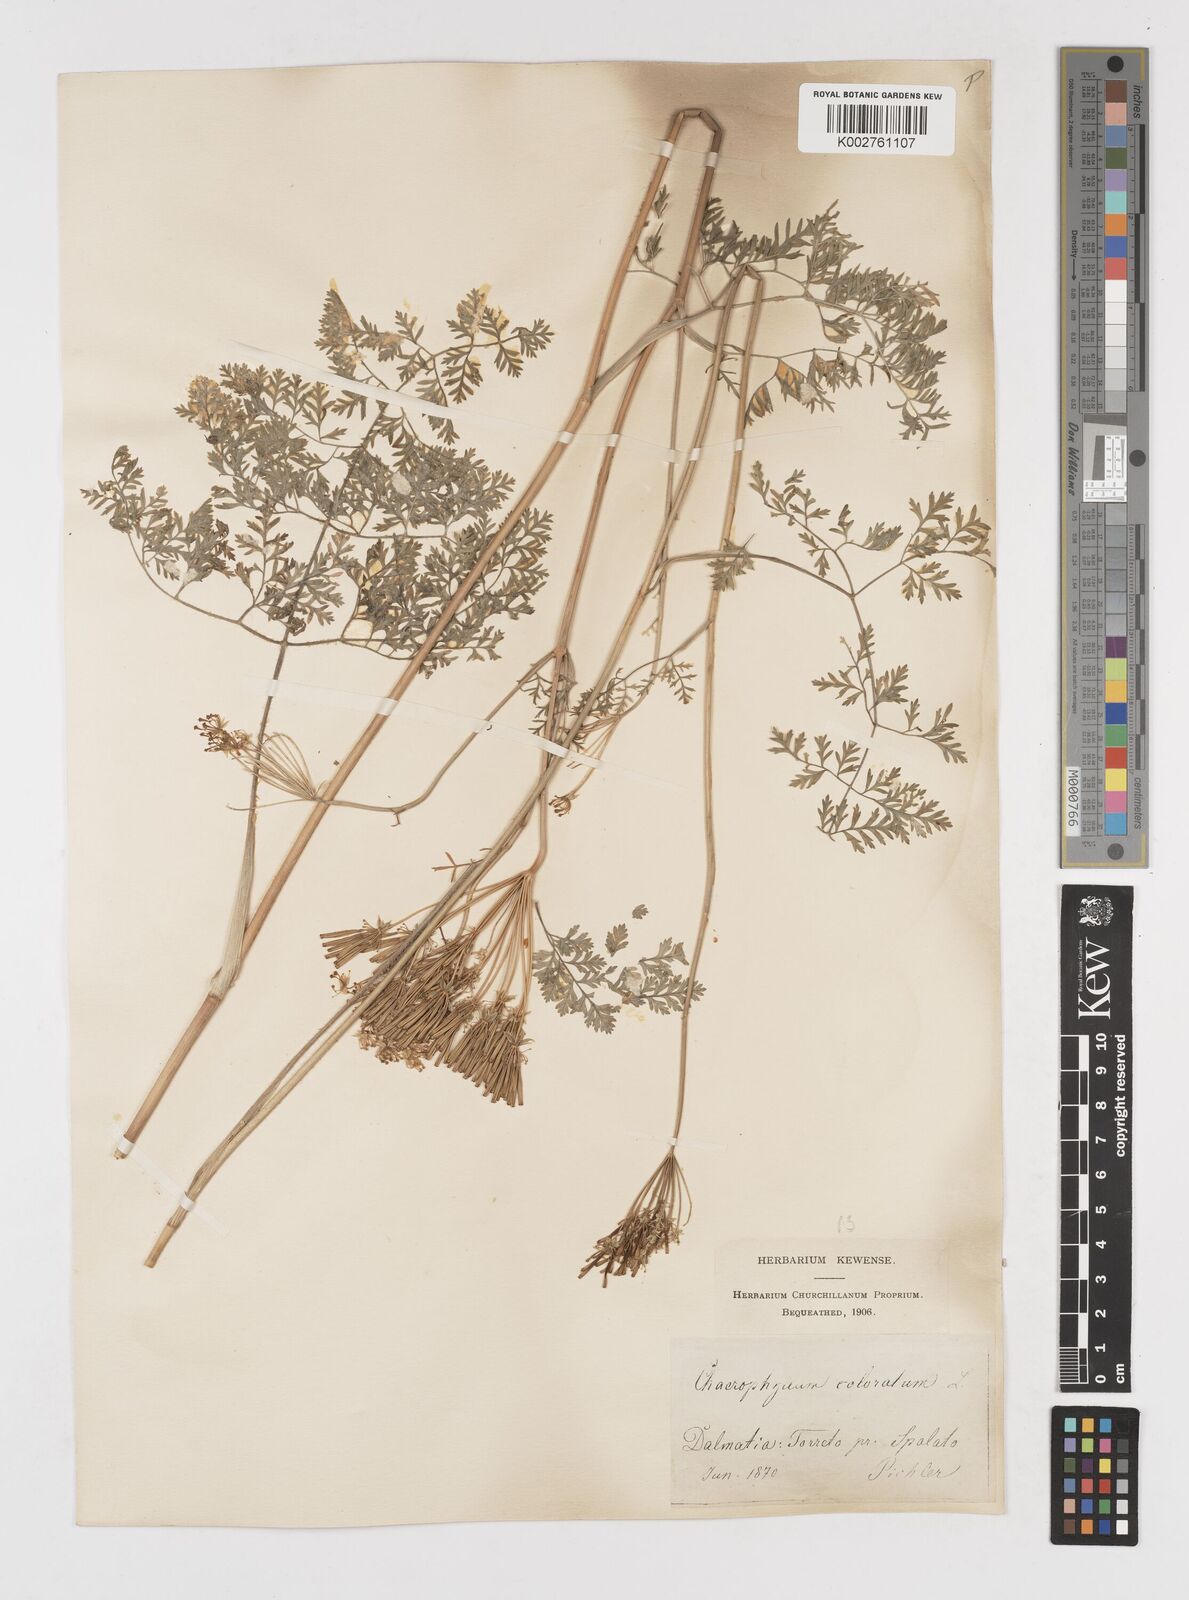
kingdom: Plantae
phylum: Tracheophyta
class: Magnoliopsida
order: Apiales
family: Apiaceae
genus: Chaerophyllum
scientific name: Chaerophyllum coloratum
